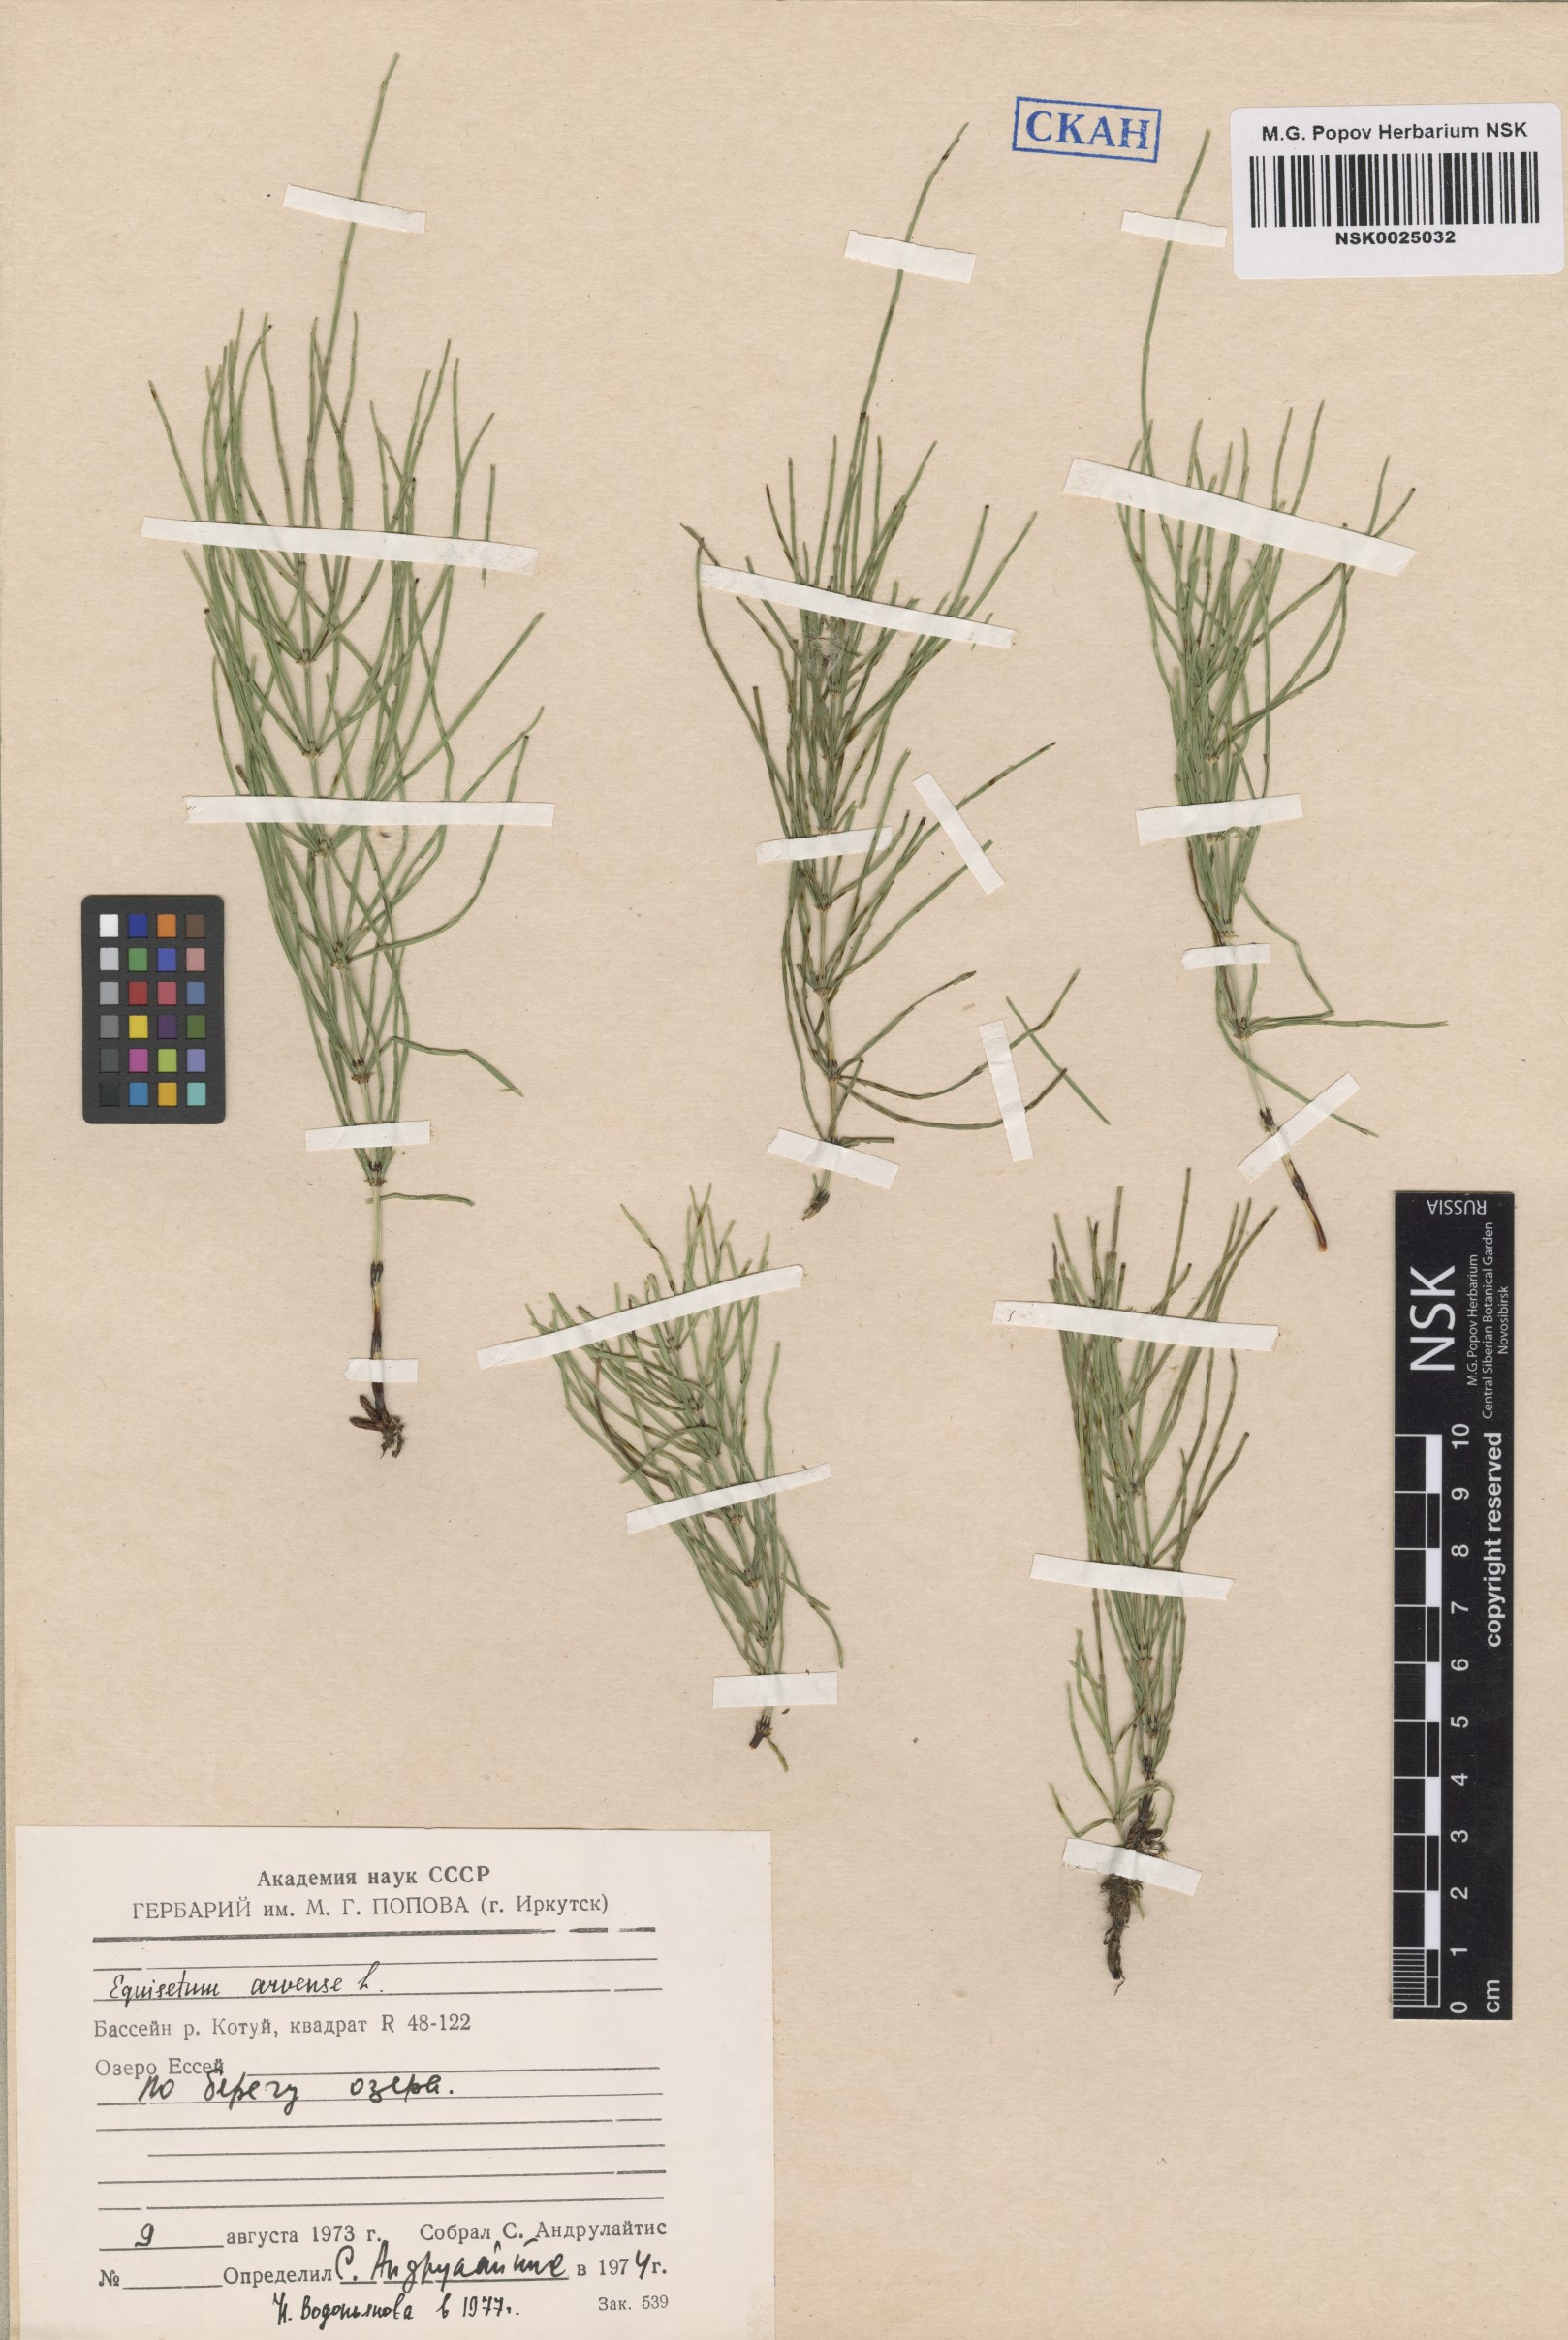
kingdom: Plantae
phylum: Tracheophyta
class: Polypodiopsida
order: Equisetales
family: Equisetaceae
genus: Equisetum
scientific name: Equisetum arvense
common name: Field horsetail
